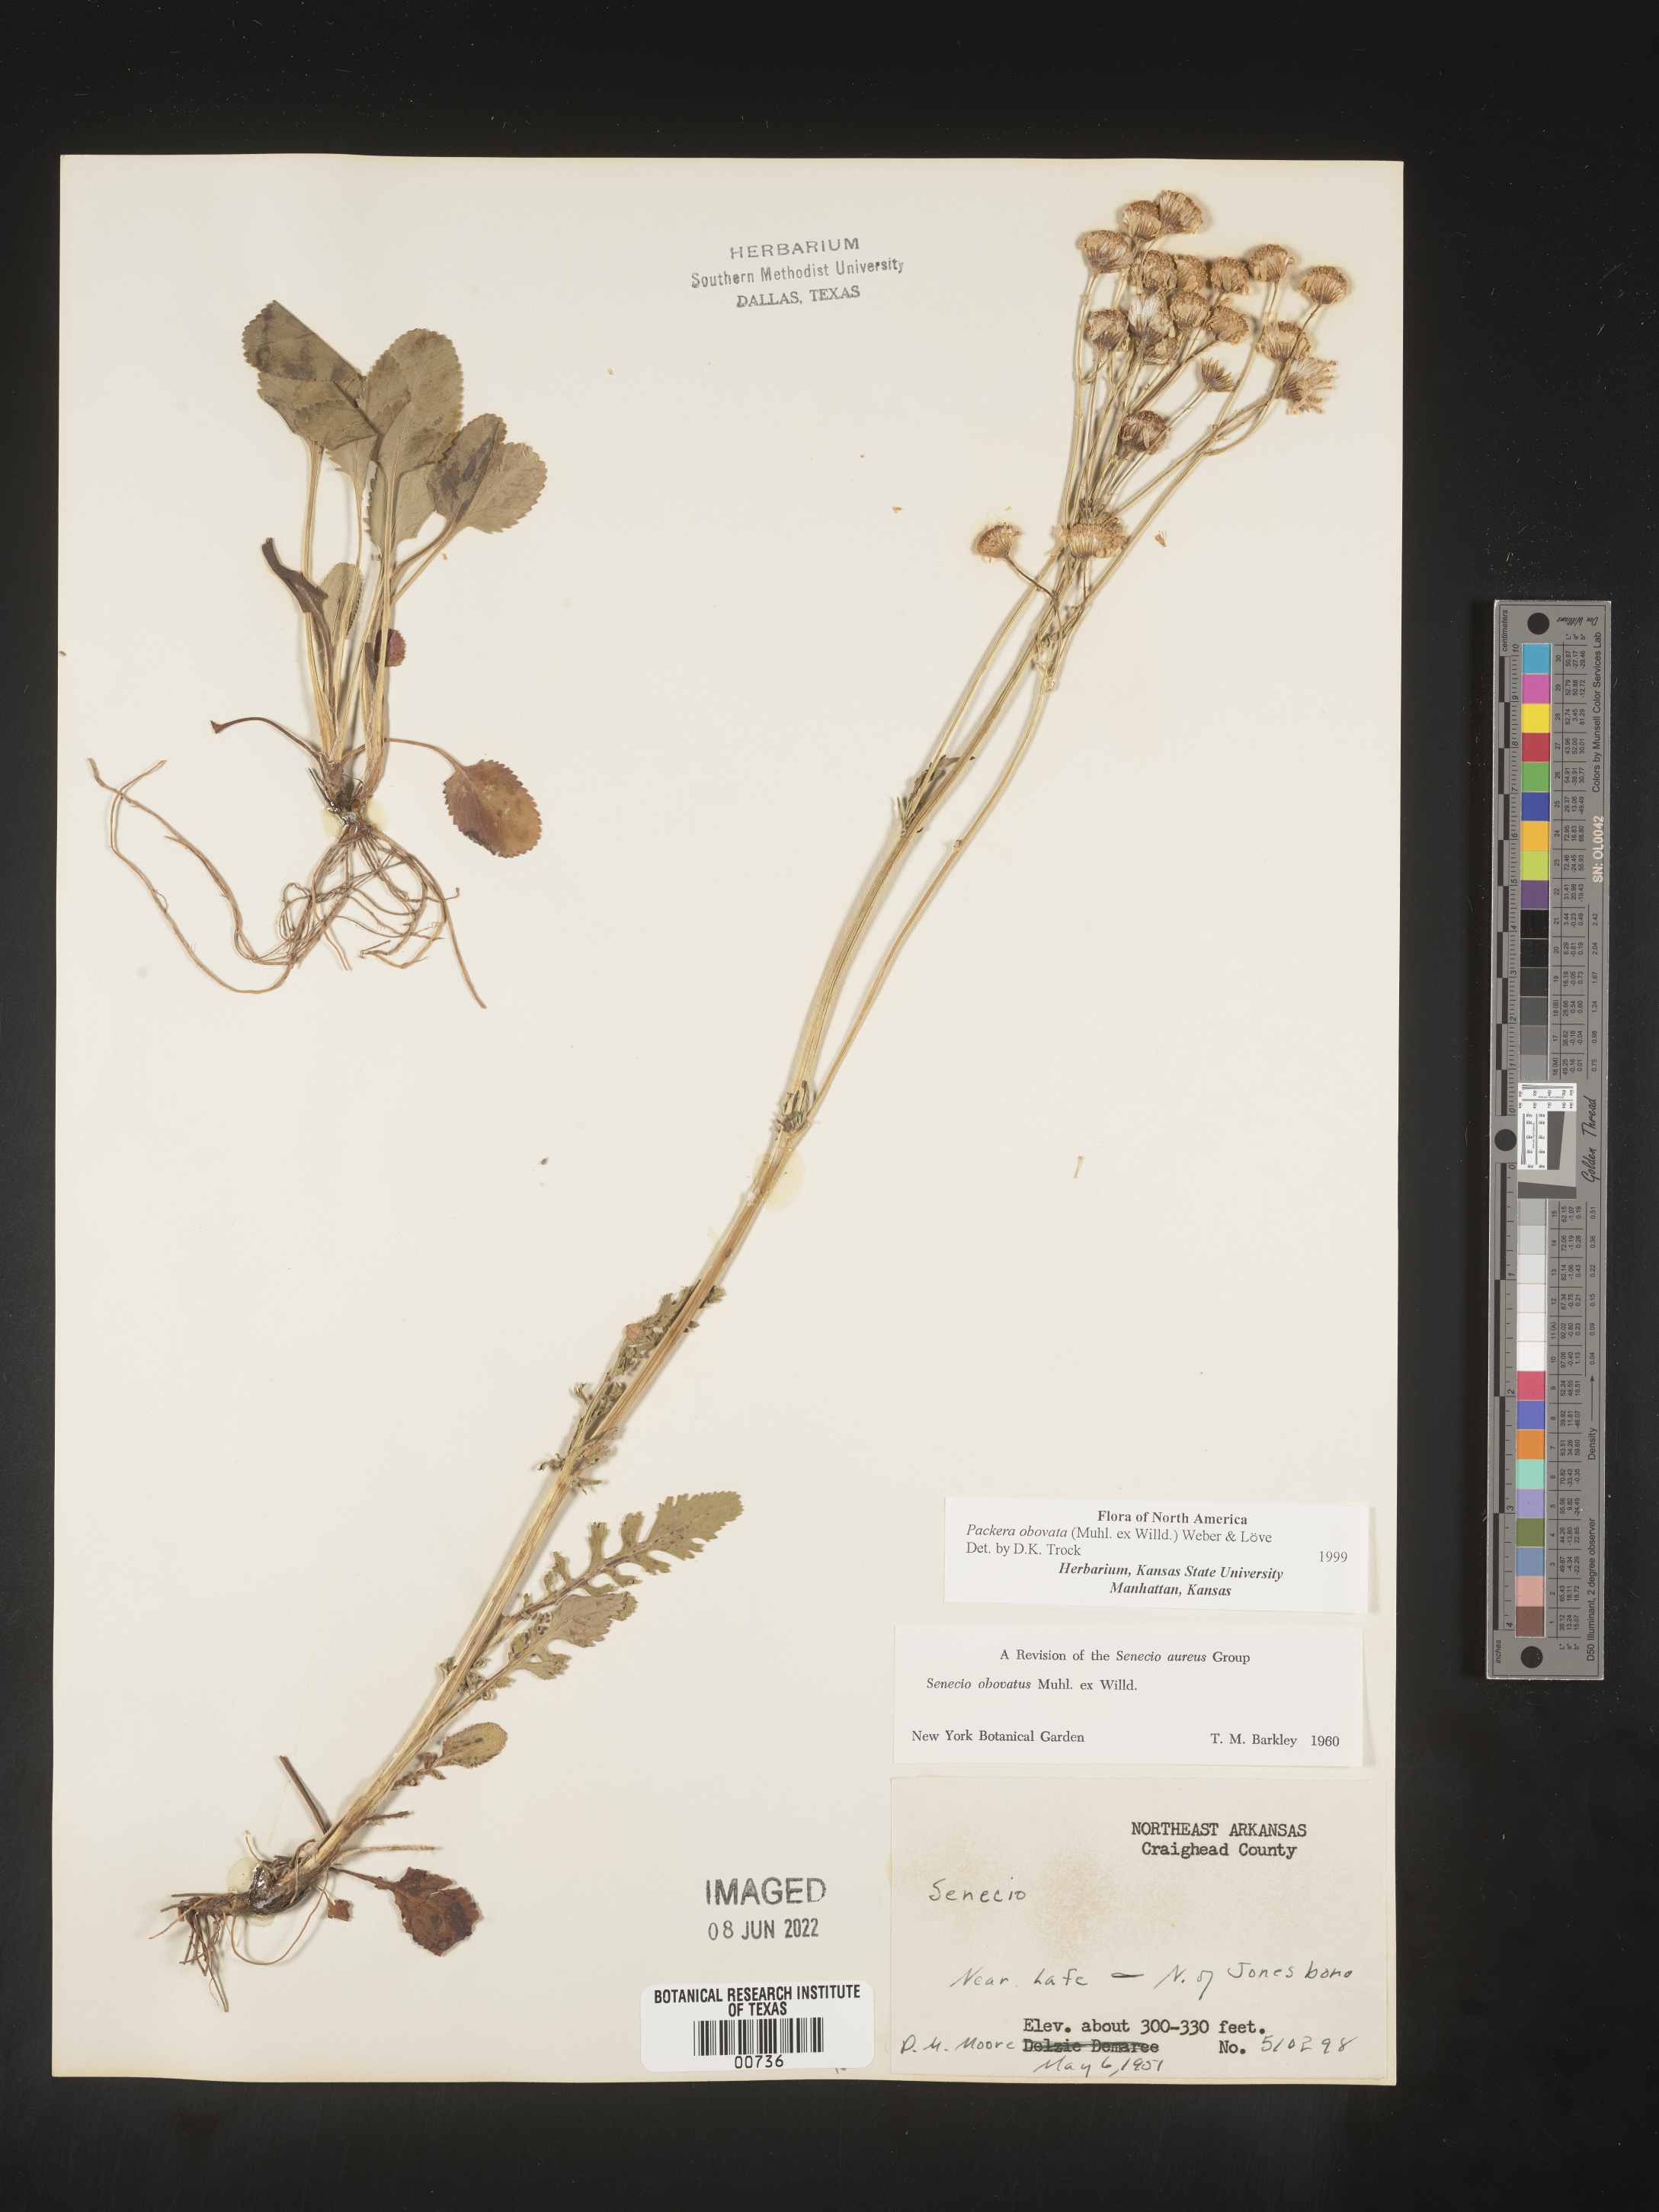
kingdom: Plantae
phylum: Tracheophyta
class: Magnoliopsida
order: Asterales
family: Asteraceae
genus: Packera
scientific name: Packera obovata
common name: Round-leaf ragwort
